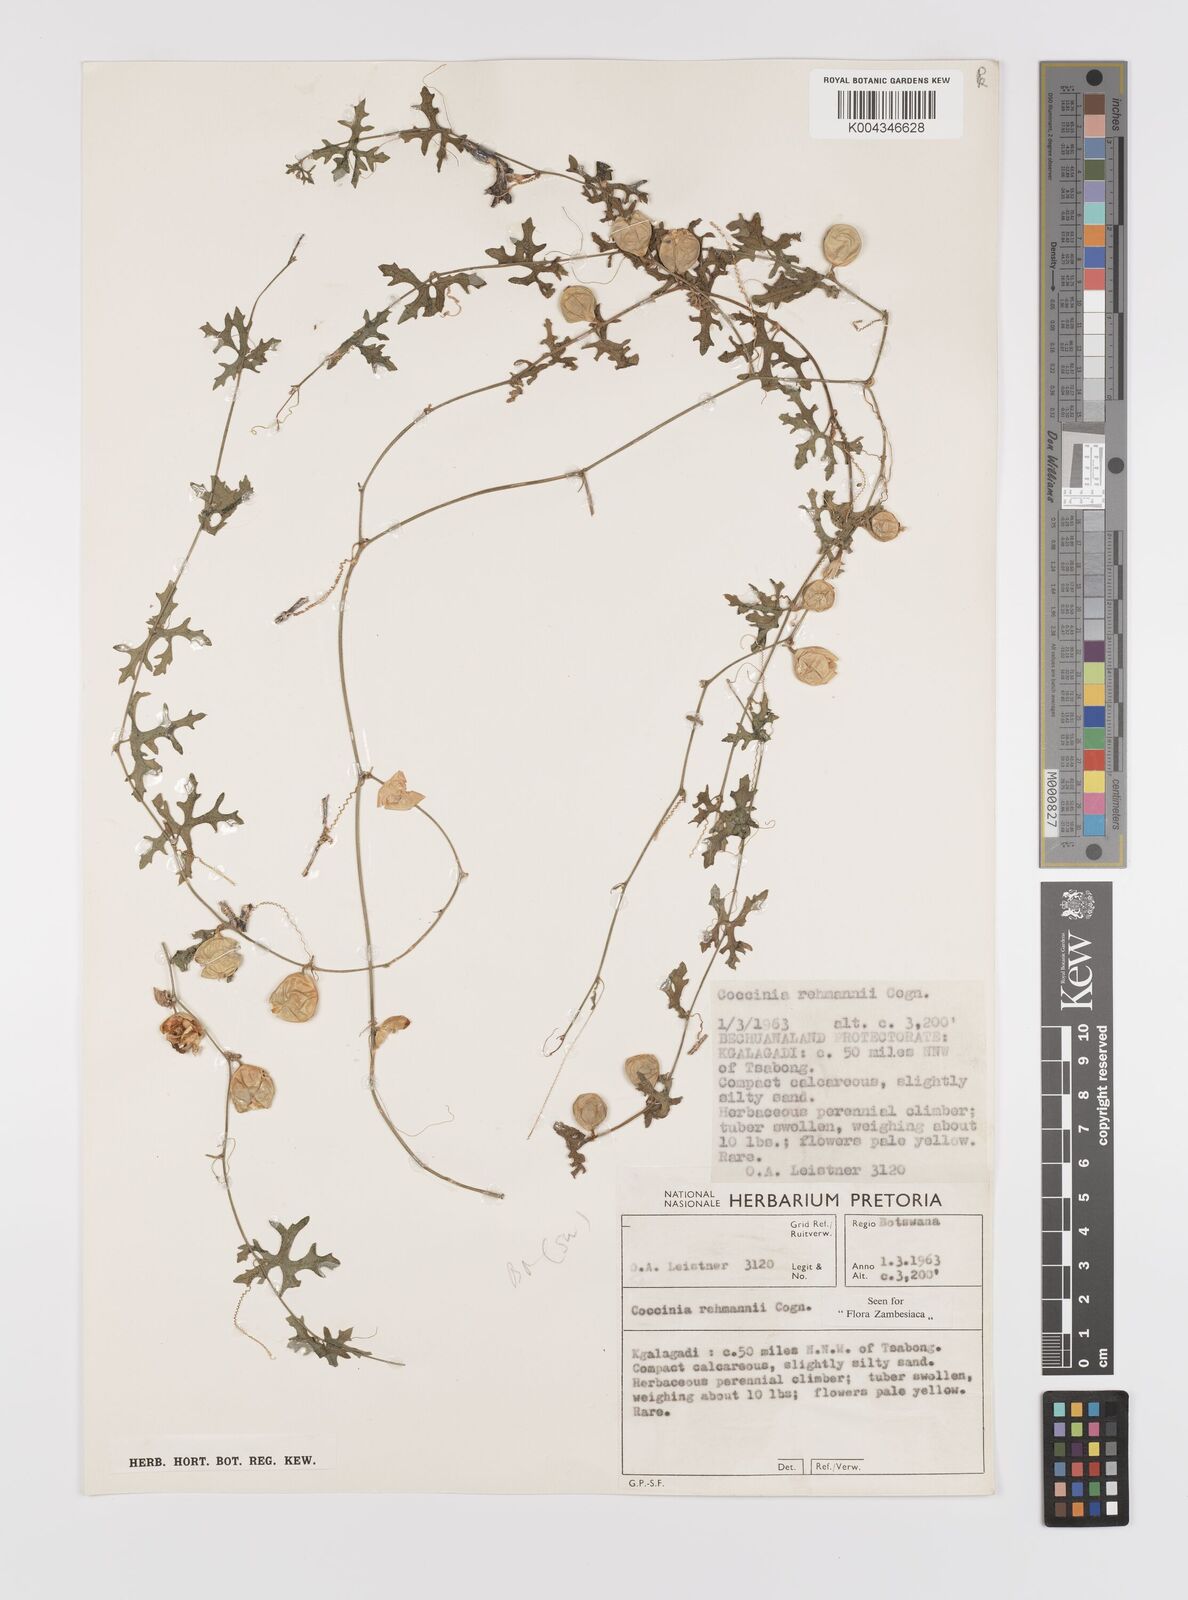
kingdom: Plantae
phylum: Tracheophyta
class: Magnoliopsida
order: Cucurbitales
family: Cucurbitaceae
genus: Coccinia
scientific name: Coccinia rehmannii
